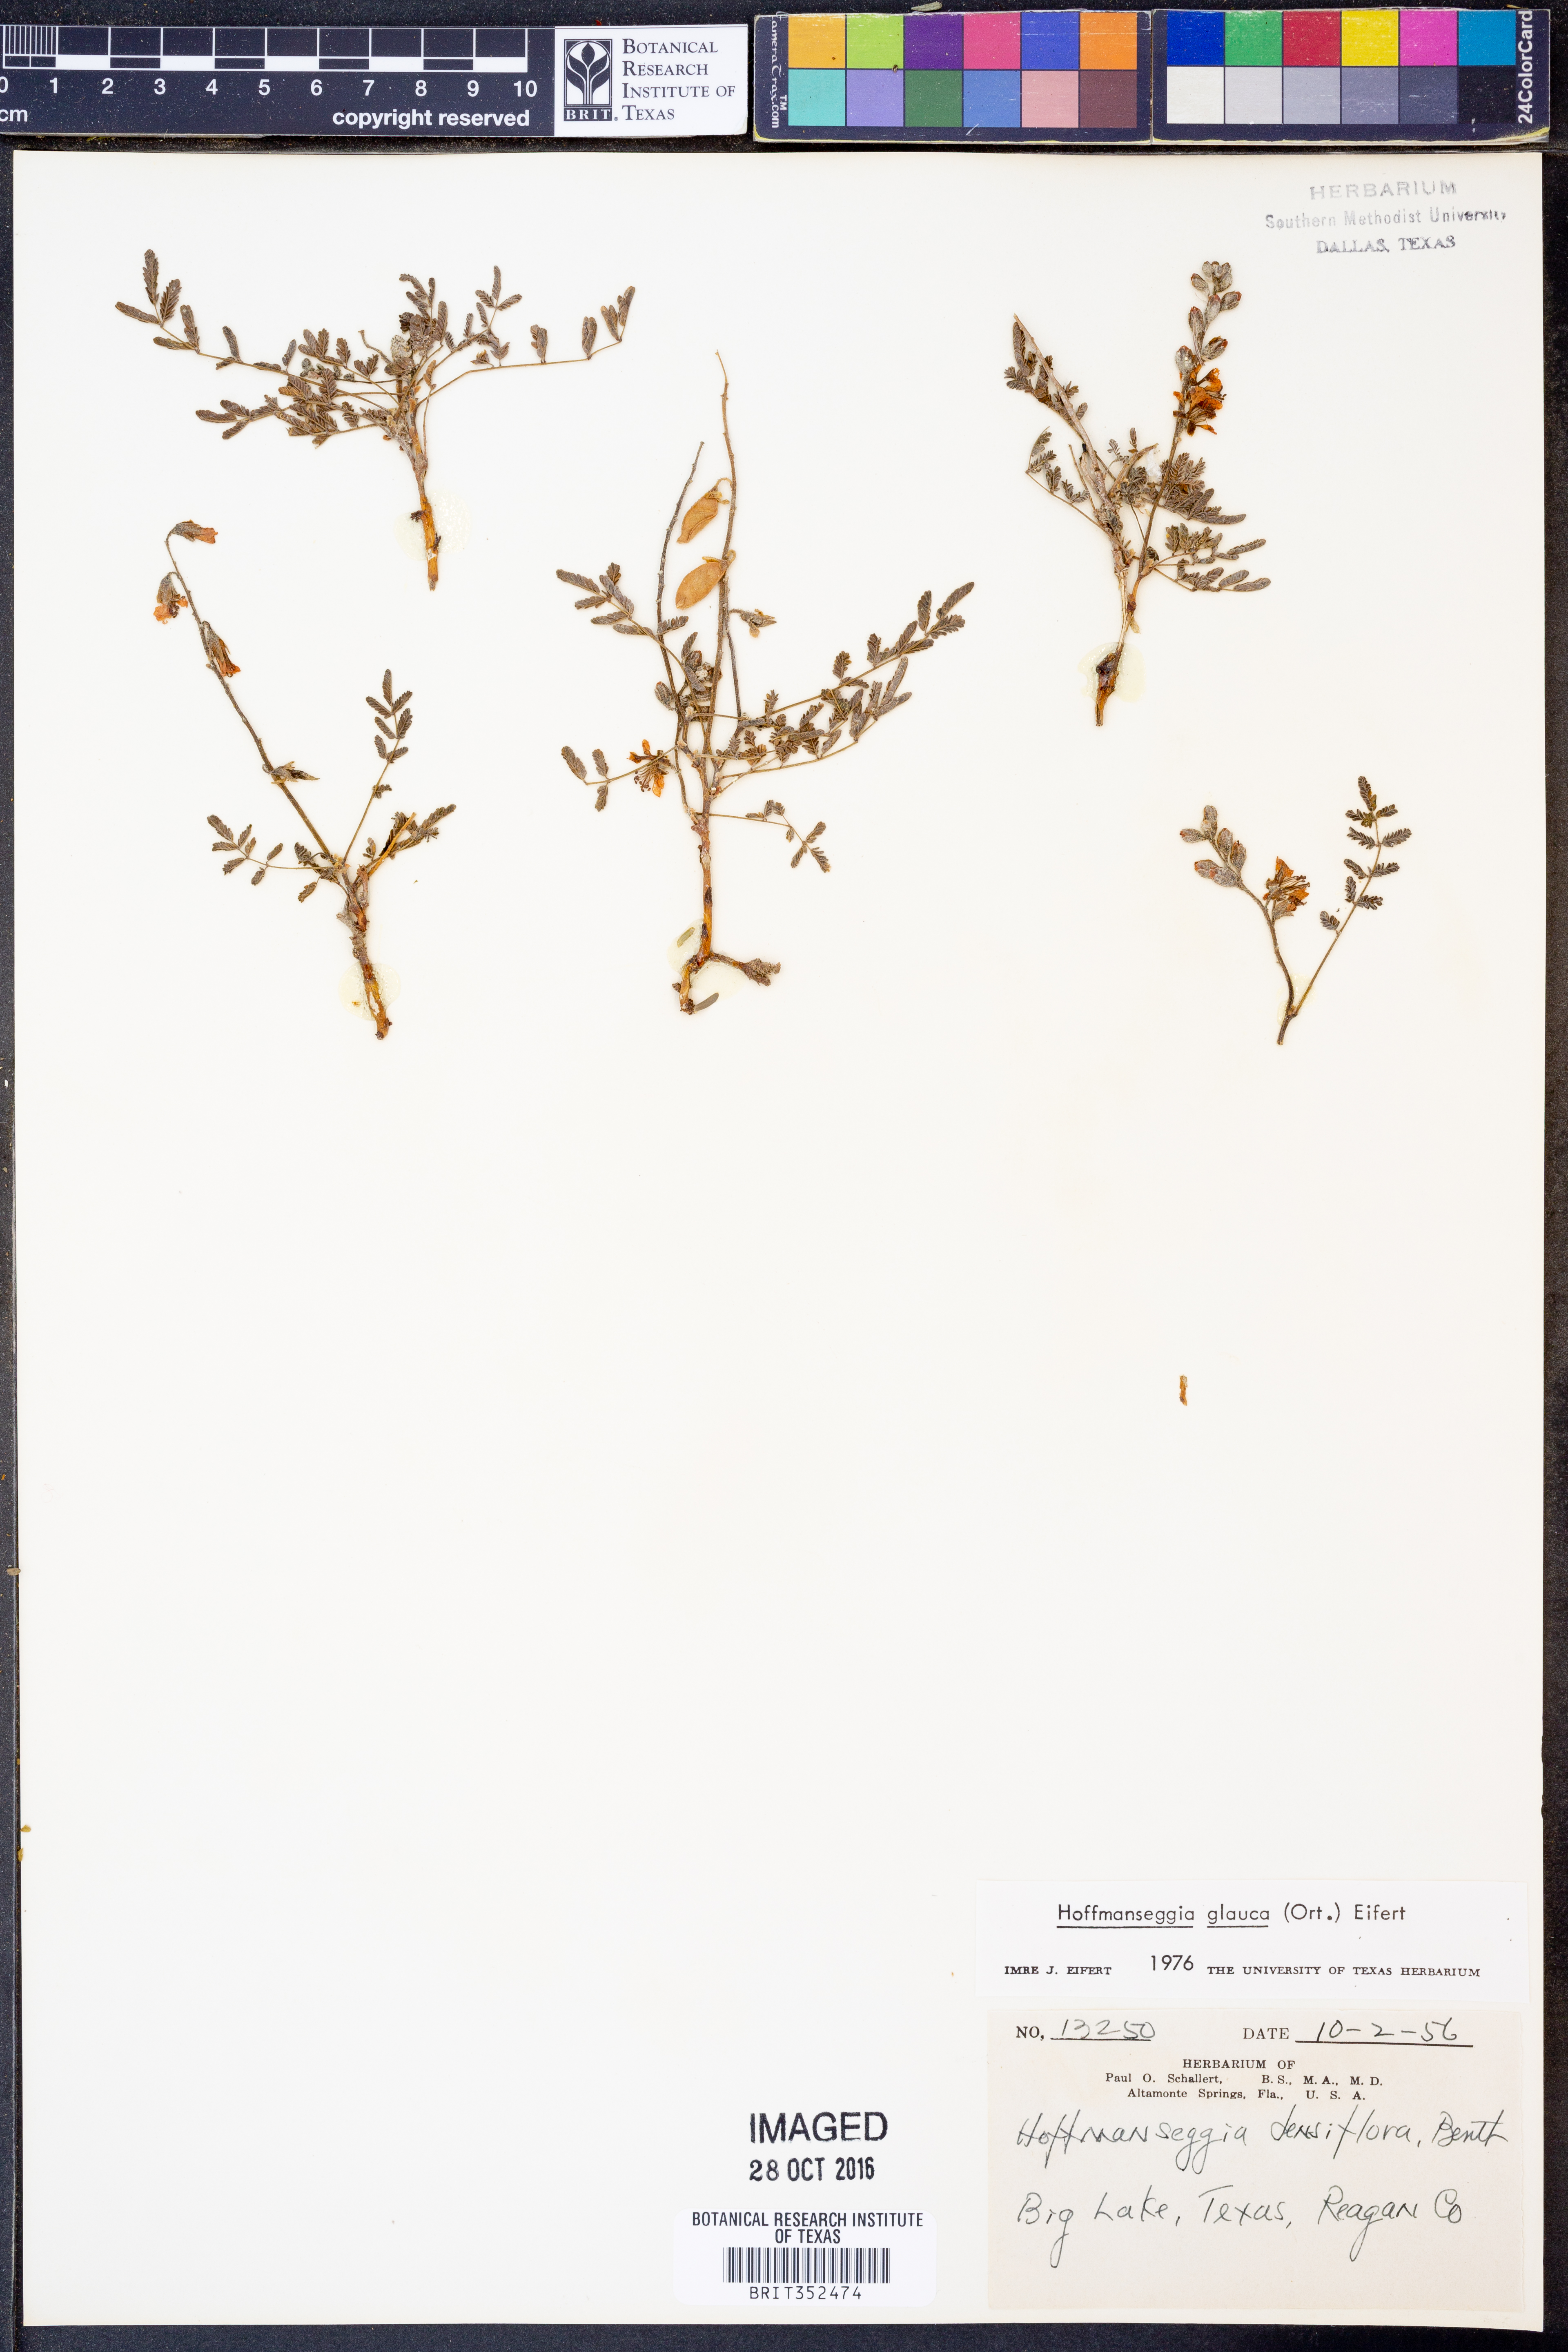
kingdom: Plantae
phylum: Tracheophyta
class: Magnoliopsida
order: Fabales
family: Fabaceae
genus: Hoffmannseggia
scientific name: Hoffmannseggia glauca
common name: Pignut
